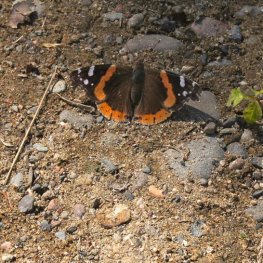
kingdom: Animalia
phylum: Arthropoda
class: Insecta
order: Lepidoptera
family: Nymphalidae
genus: Vanessa
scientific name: Vanessa atalanta
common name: Red Admiral
